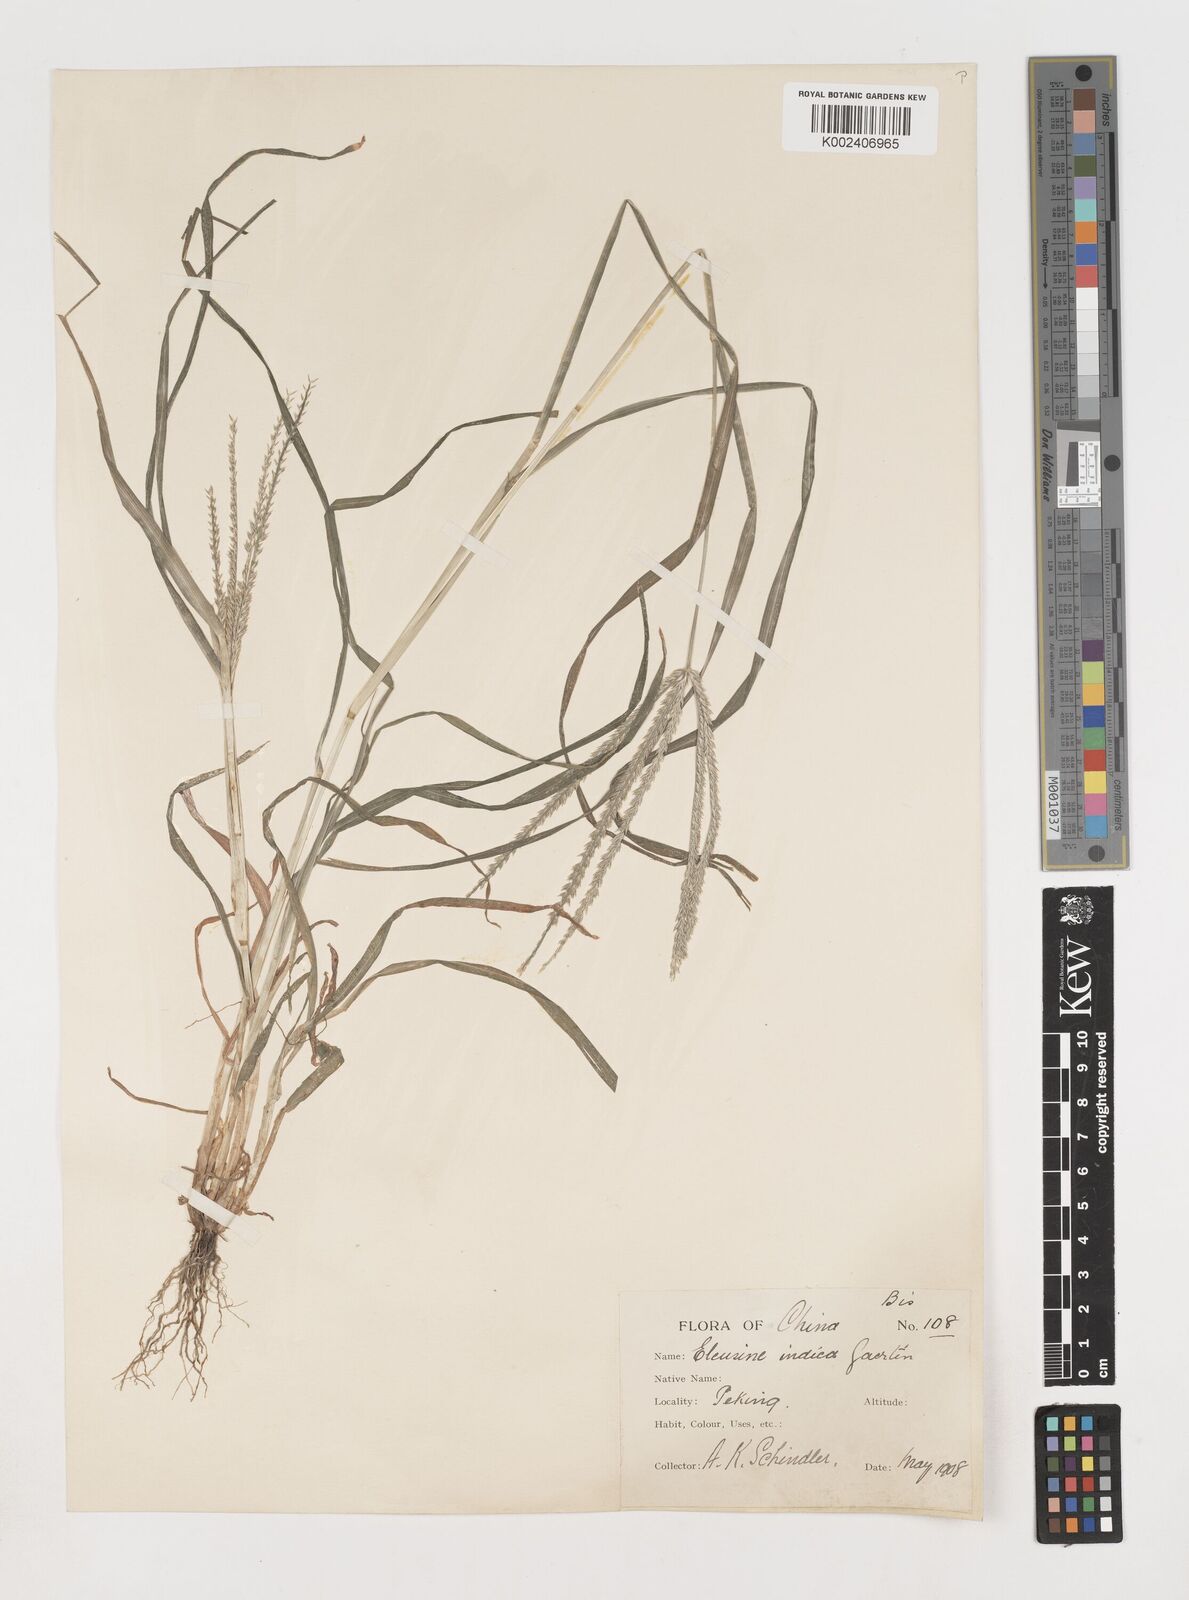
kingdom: Plantae
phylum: Tracheophyta
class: Liliopsida
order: Poales
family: Poaceae
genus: Eleusine
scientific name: Eleusine indica
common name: Yard-grass
